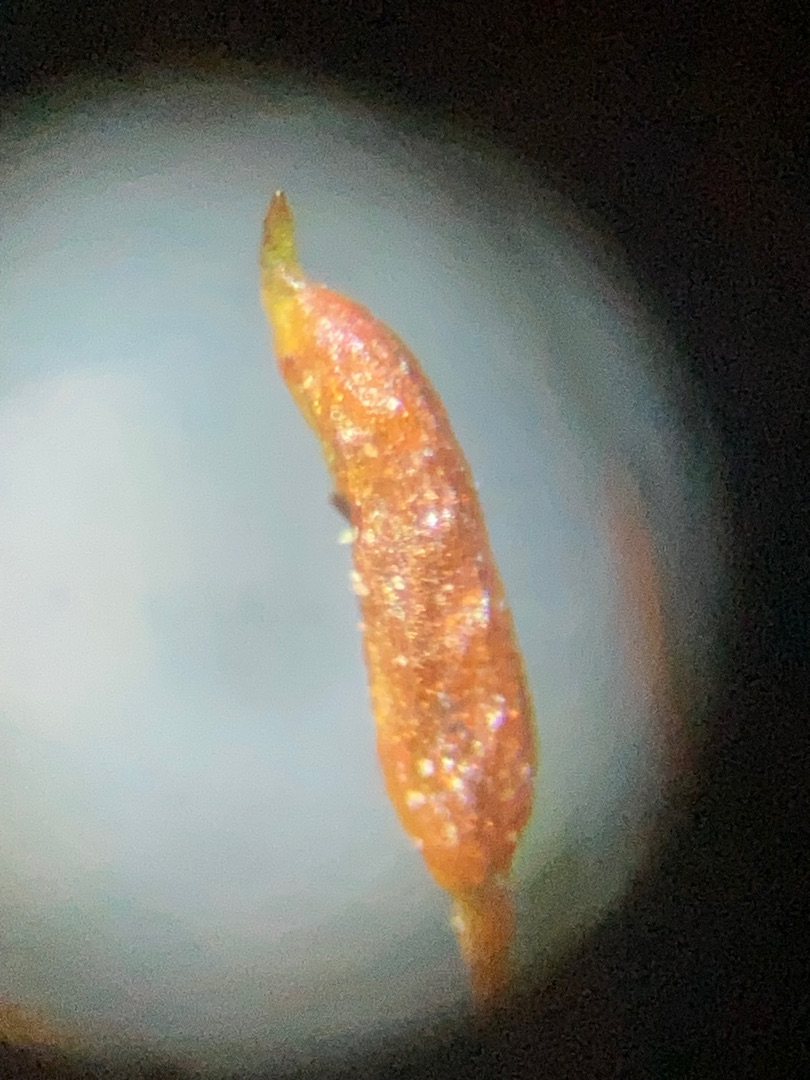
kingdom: Plantae
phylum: Bryophyta
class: Bryopsida
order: Pottiales
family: Pottiaceae
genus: Bryoerythrophyllum
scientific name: Bryoerythrophyllum recurvirostrum
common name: Rød gammelblad
